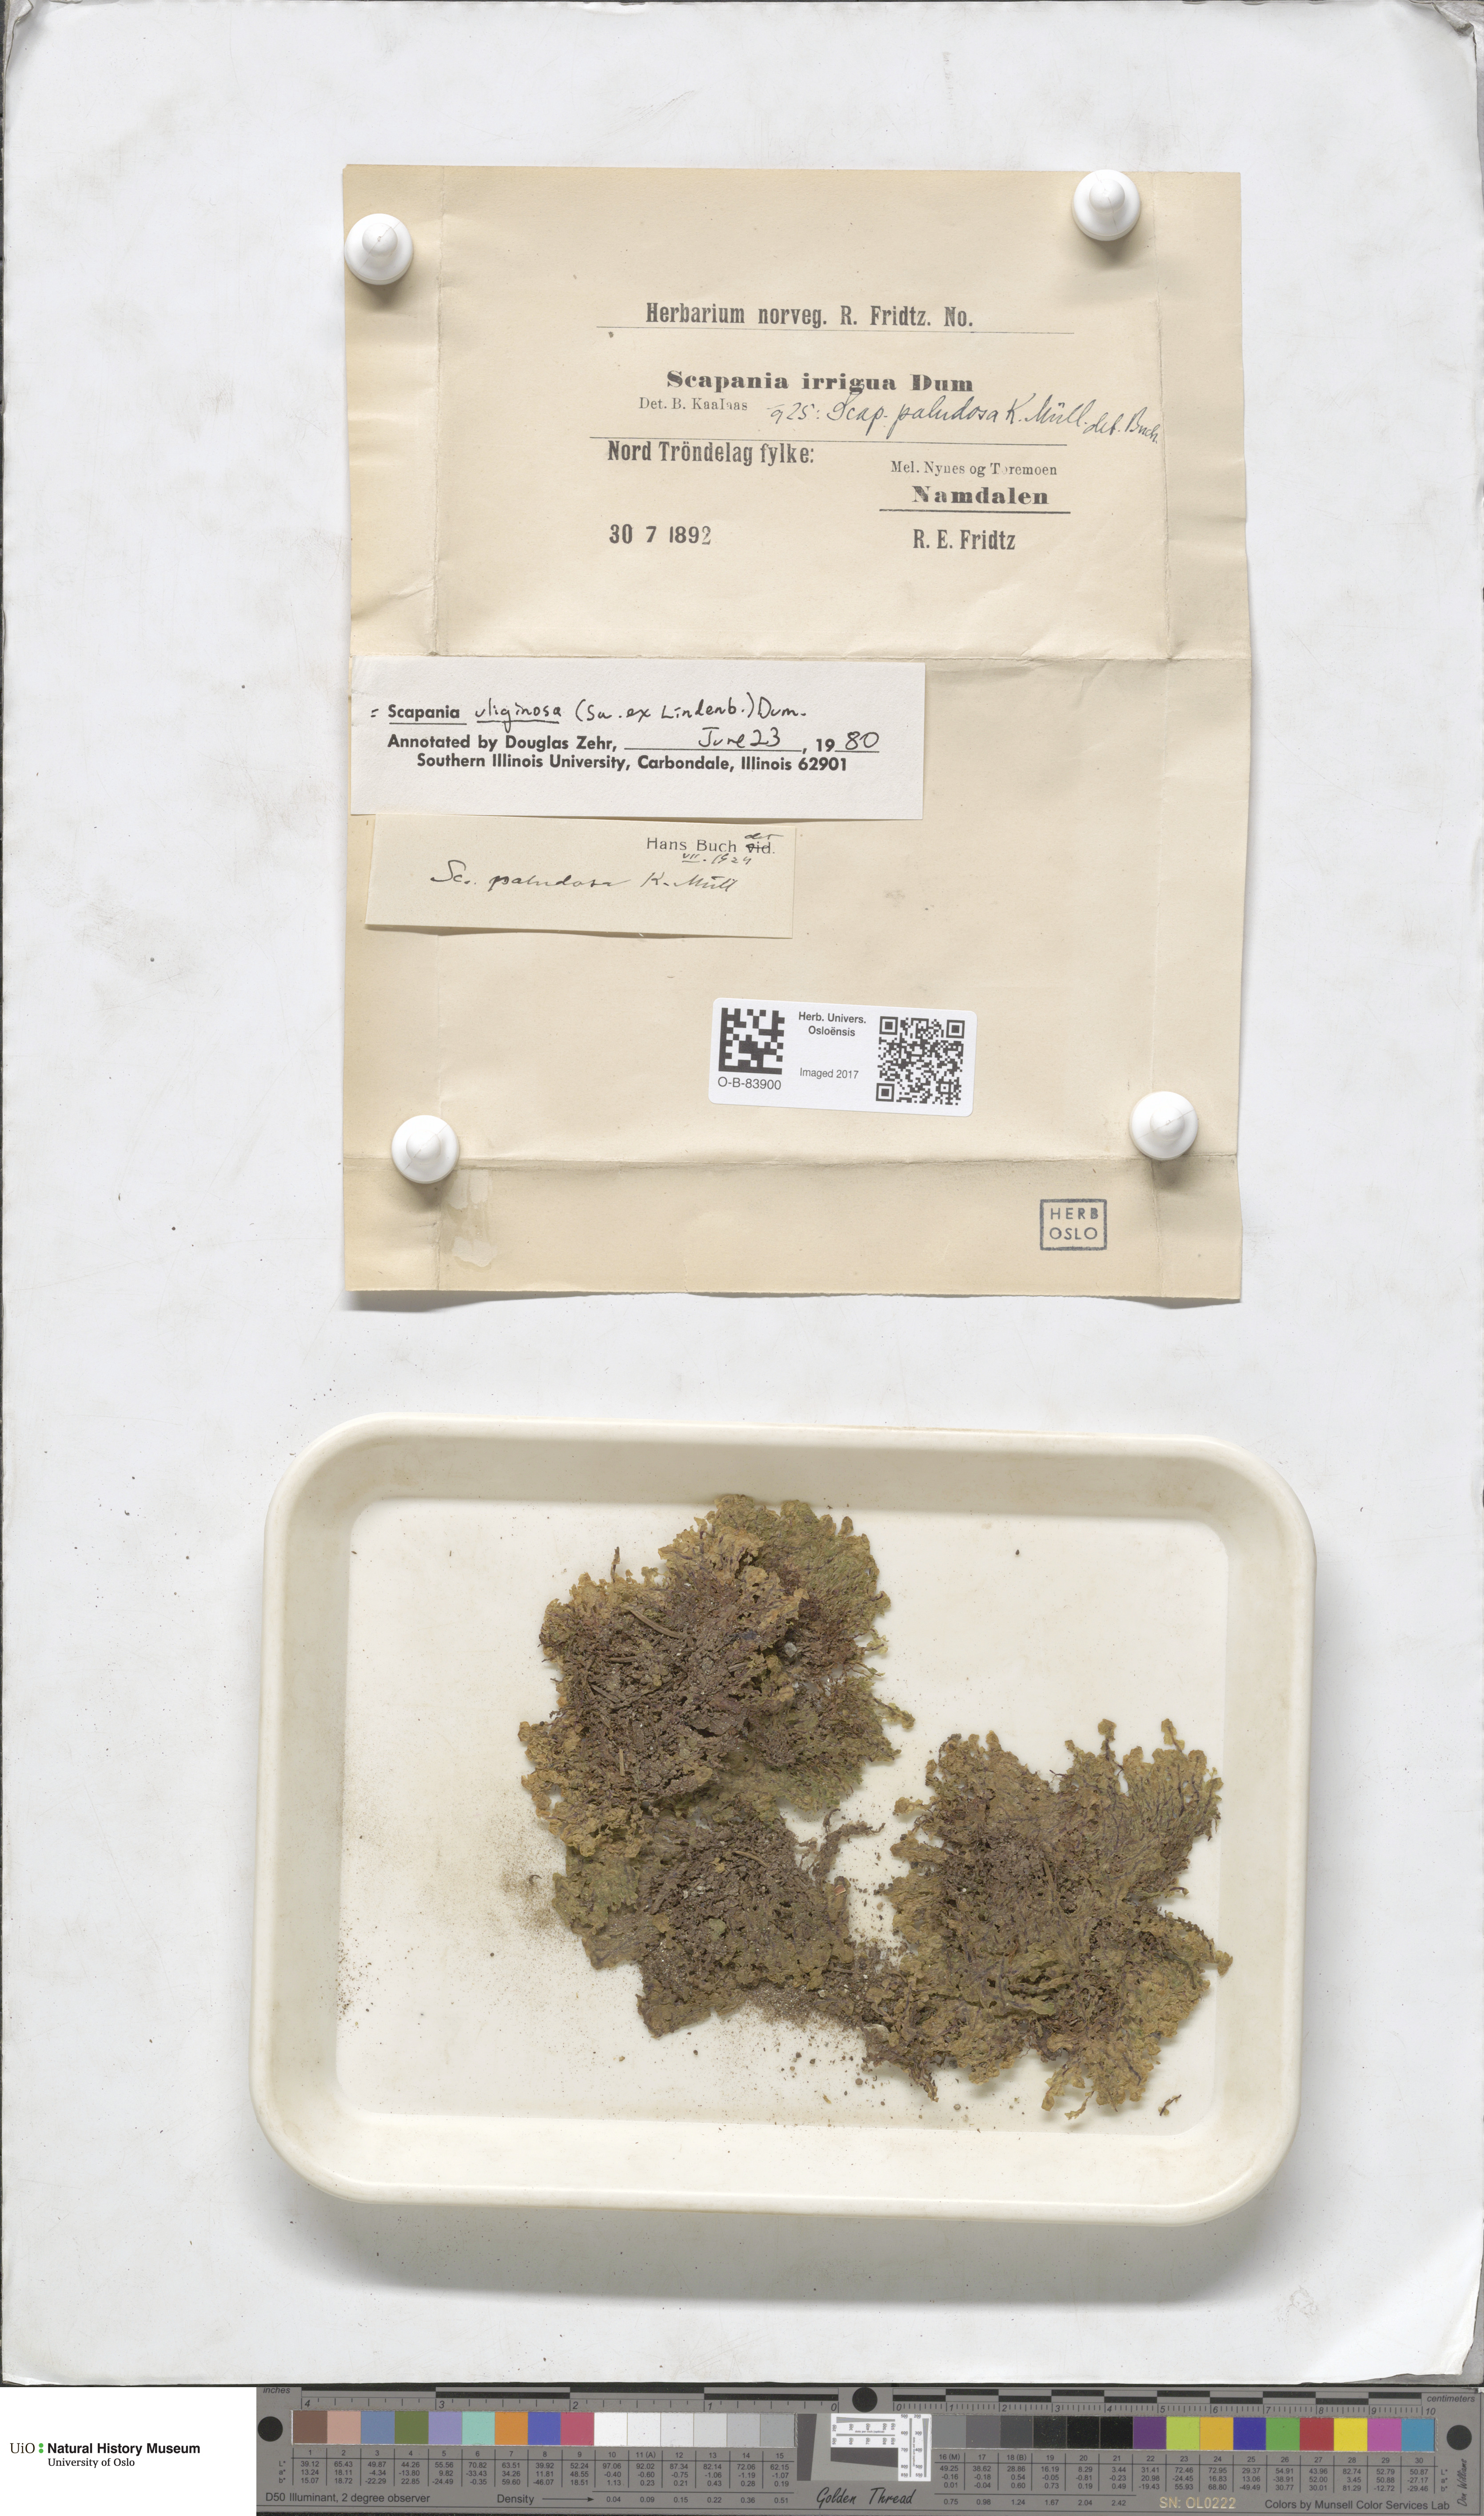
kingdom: Plantae
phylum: Marchantiophyta
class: Jungermanniopsida
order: Jungermanniales
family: Scapaniaceae
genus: Scapania
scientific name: Scapania uliginosa
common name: Marsh earwort
